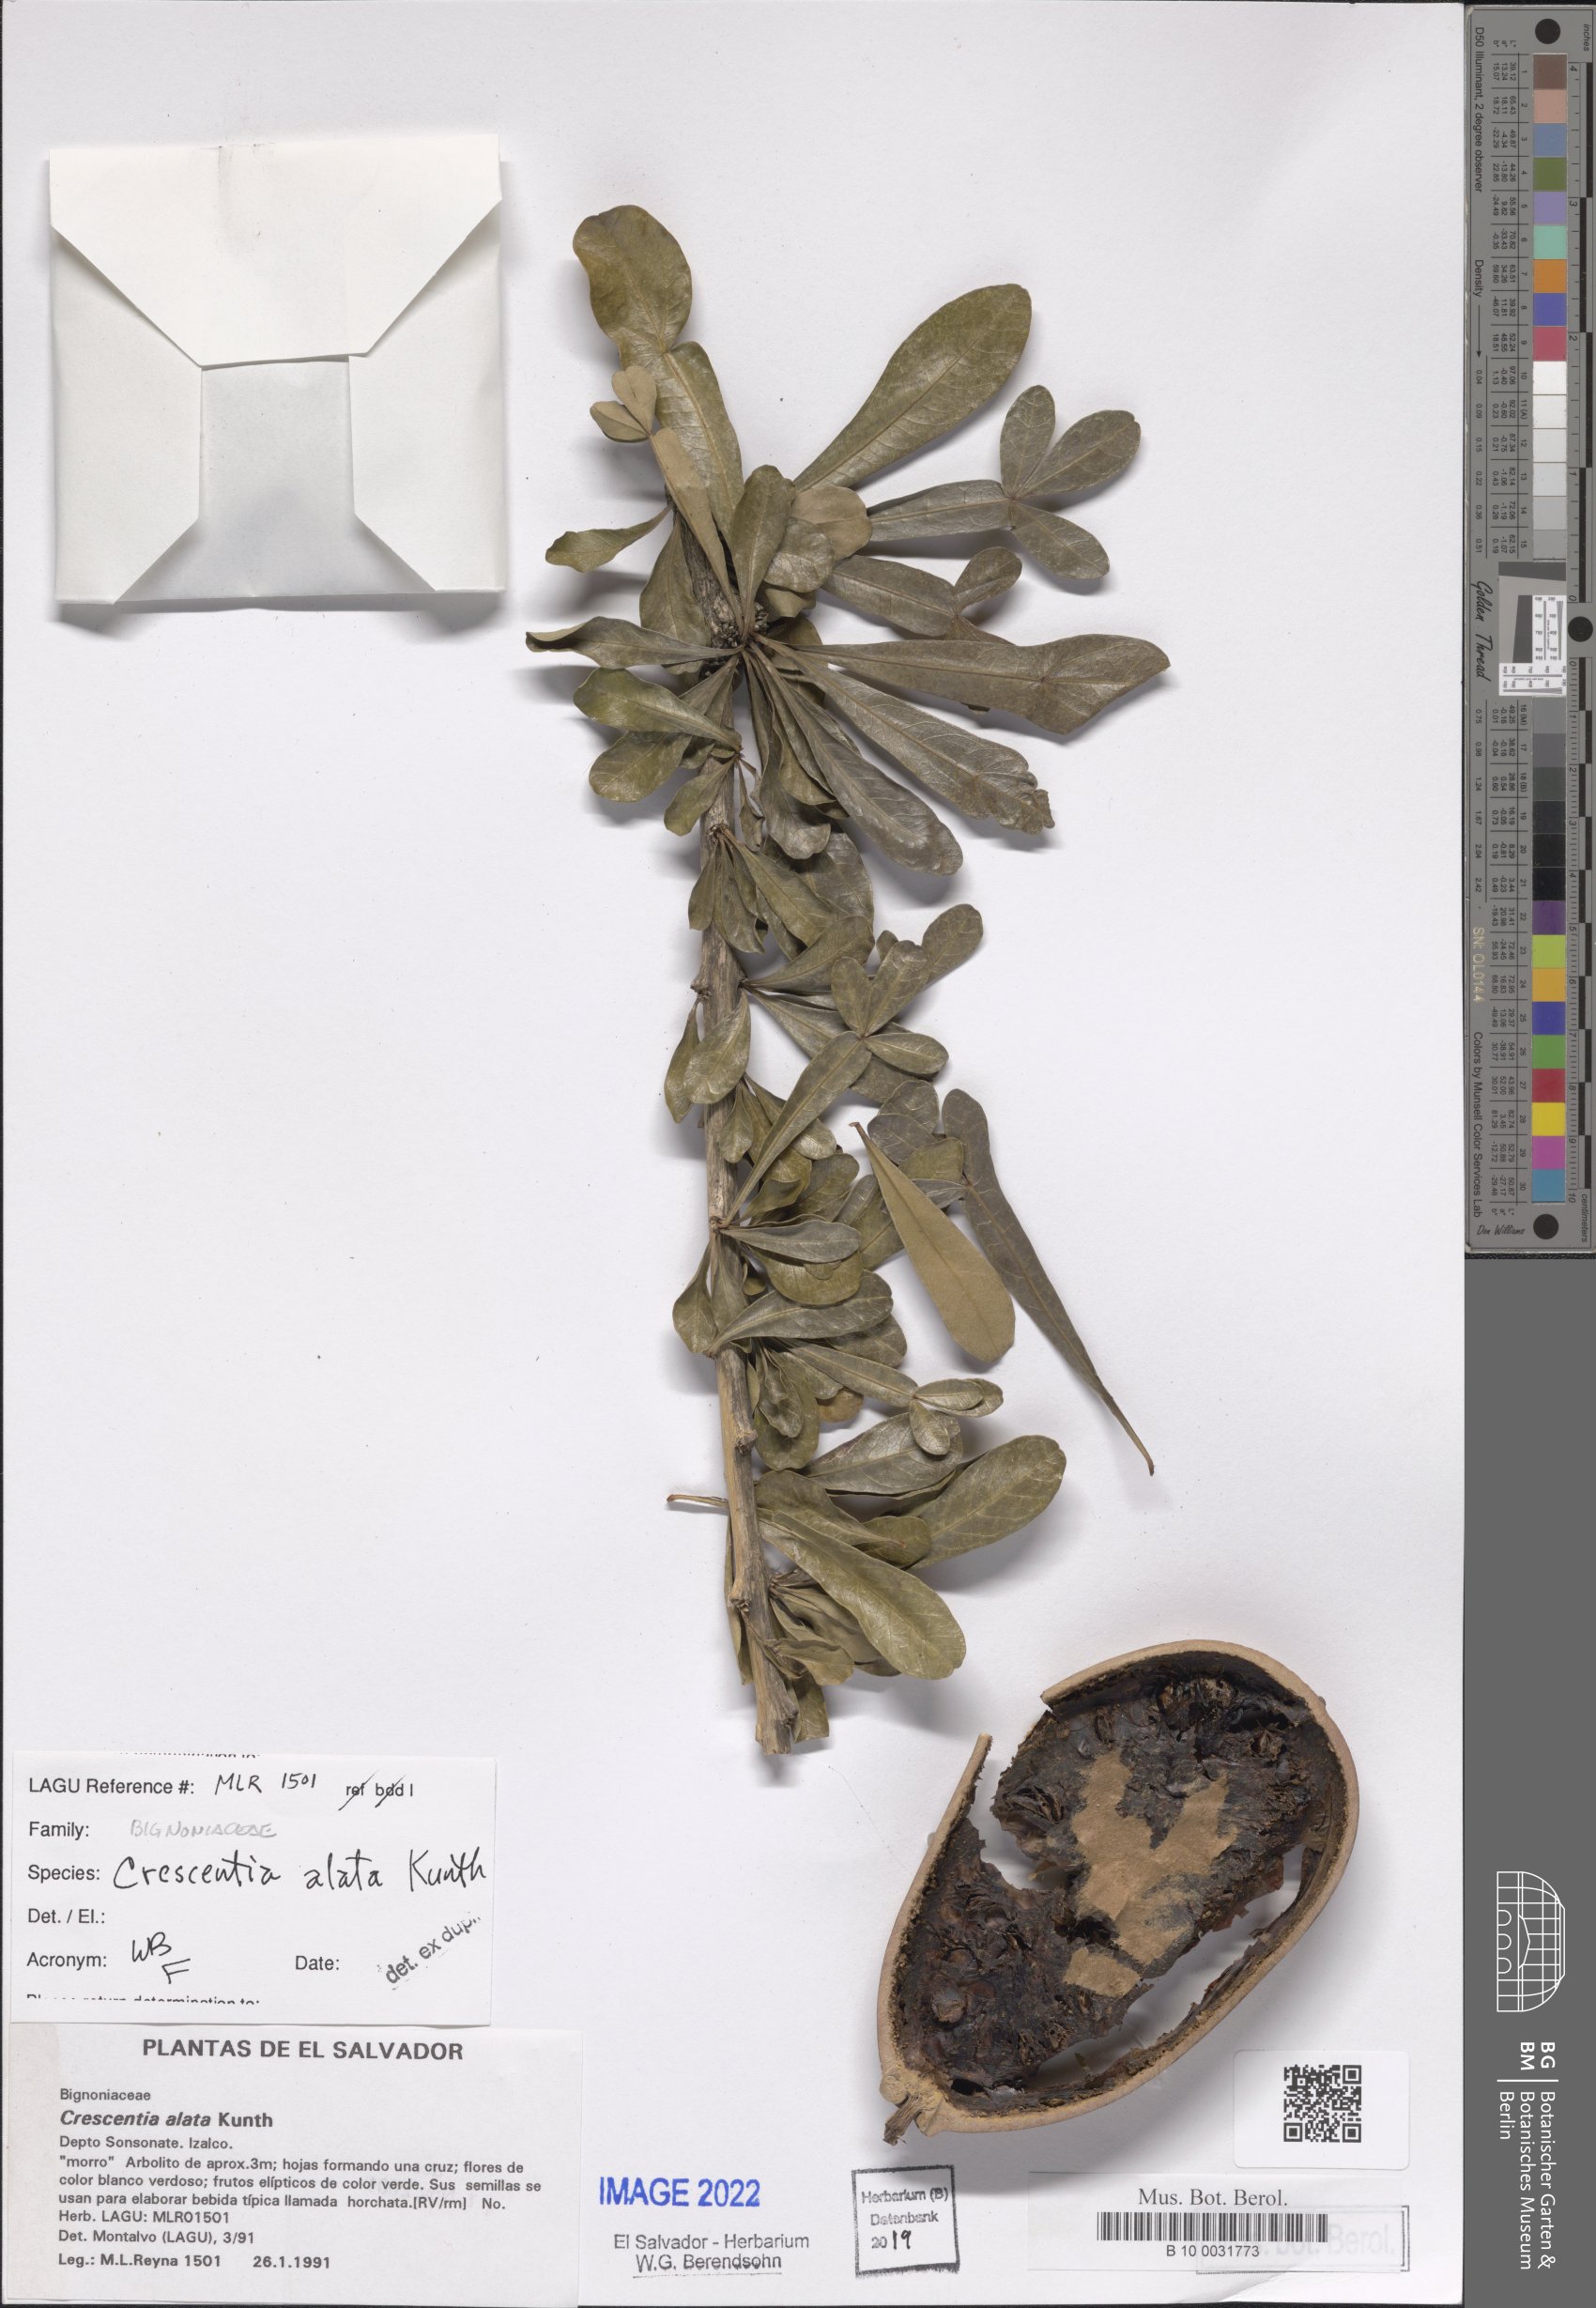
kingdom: Plantae
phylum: Tracheophyta
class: Magnoliopsida
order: Lamiales
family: Bignoniaceae
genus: Crescentia
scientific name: Crescentia alata
